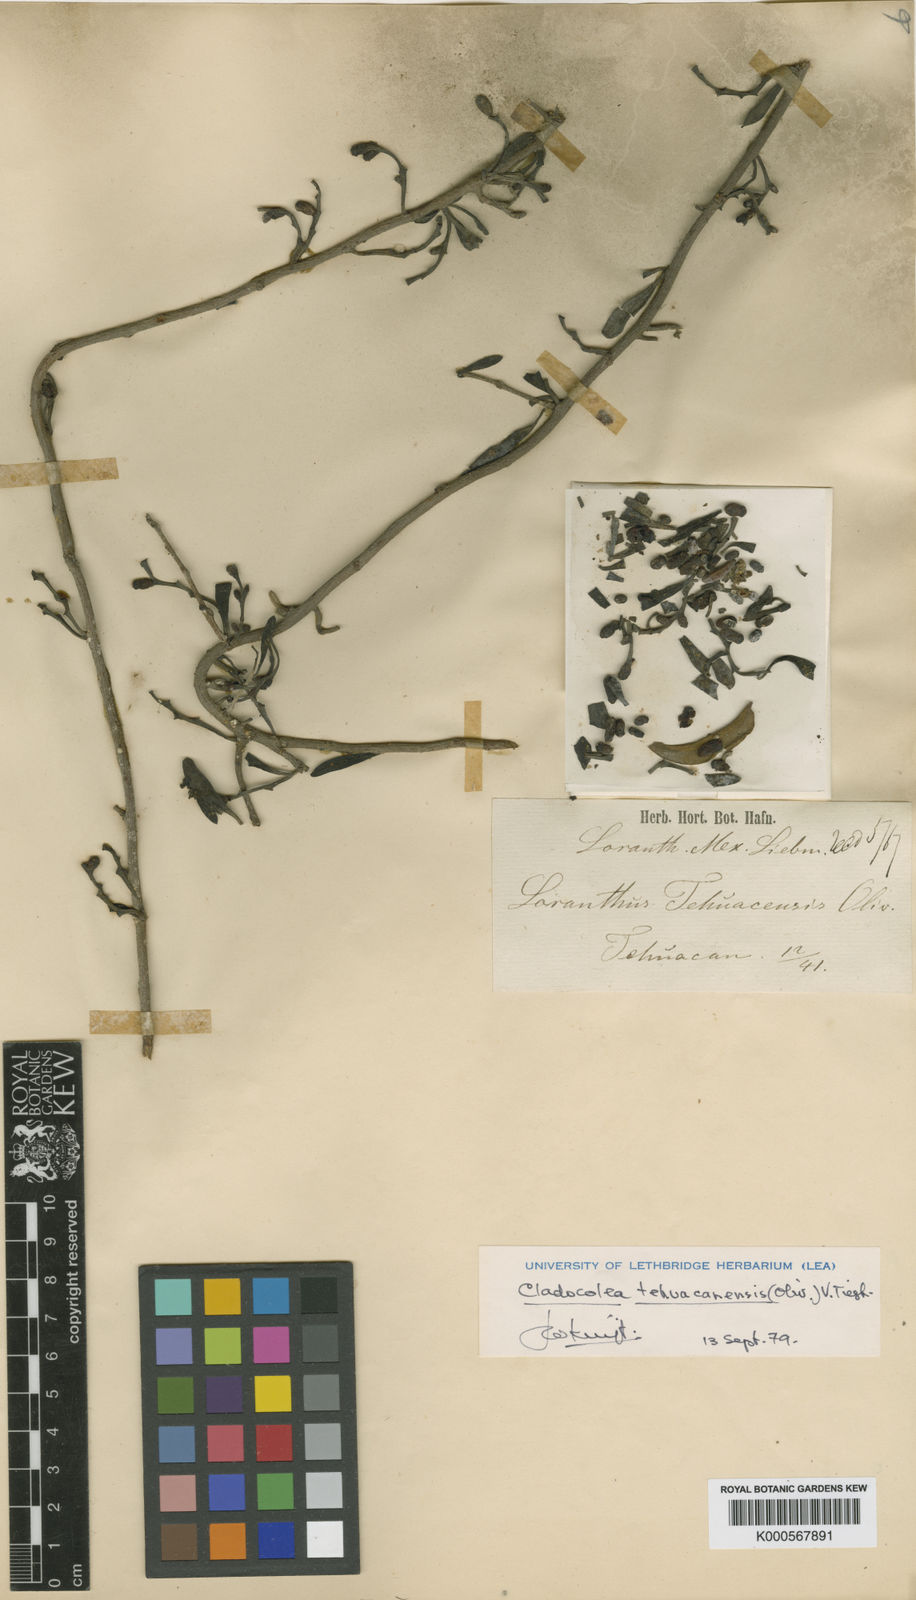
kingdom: Plantae
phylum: Tracheophyta
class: Magnoliopsida
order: Santalales
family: Loranthaceae
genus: Oryctanthus
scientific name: Oryctanthus tehuacanensis
